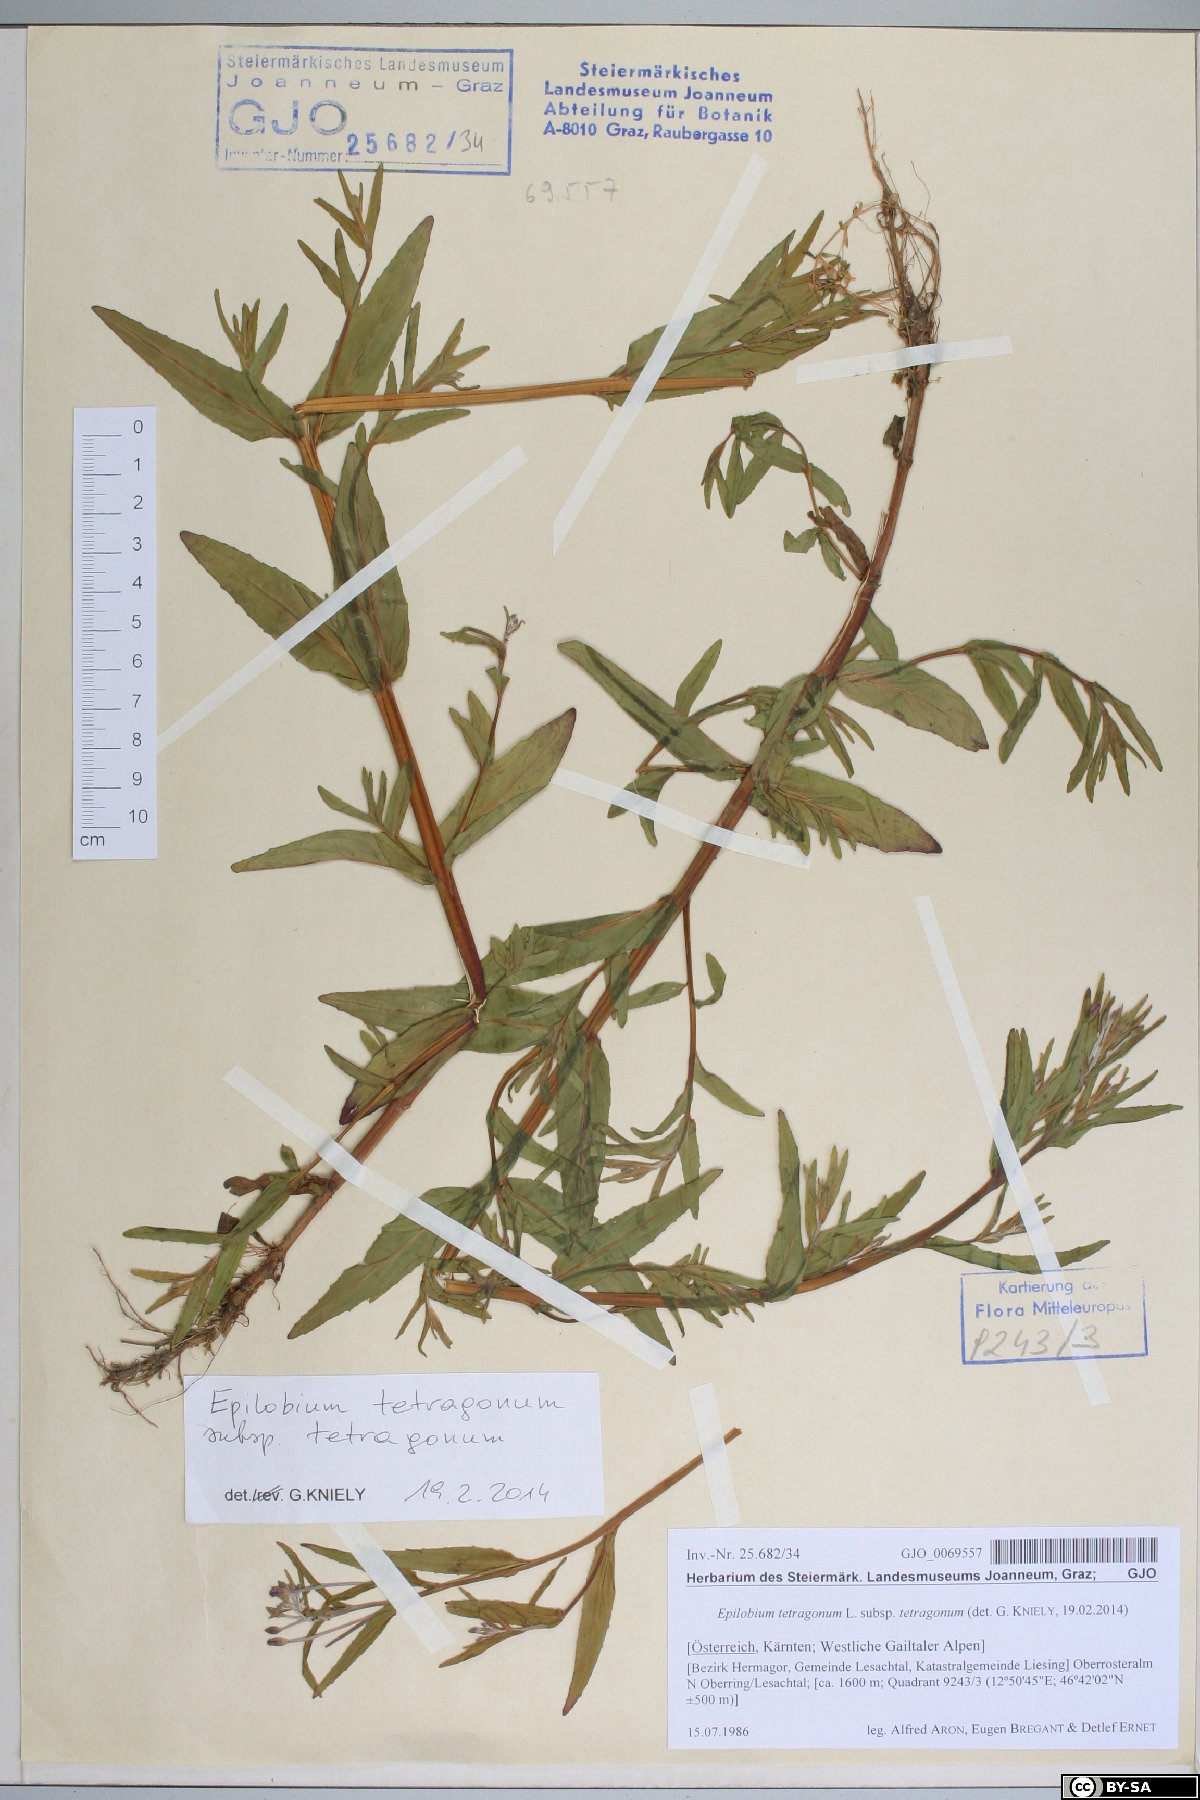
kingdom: Plantae
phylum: Tracheophyta
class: Magnoliopsida
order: Myrtales
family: Onagraceae
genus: Epilobium
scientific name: Epilobium obscurum
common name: Short-fruited willowherb
